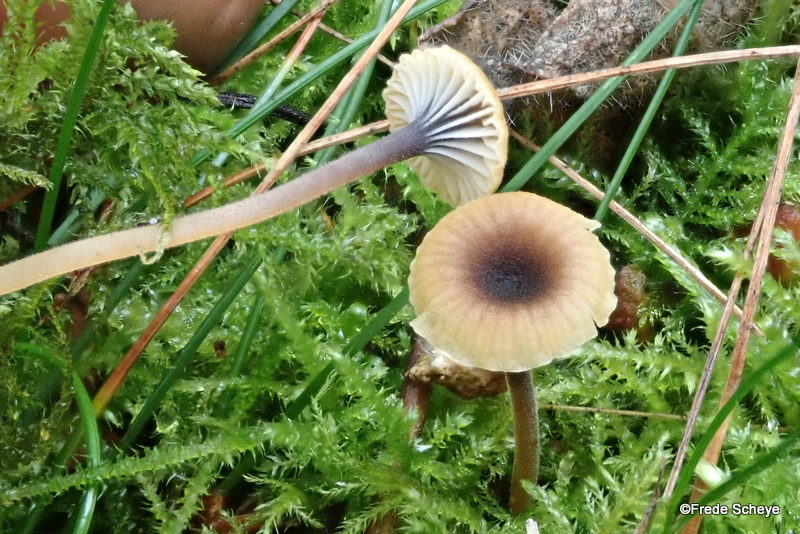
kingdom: Fungi
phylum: Basidiomycota
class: Agaricomycetes
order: Hymenochaetales
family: Rickenellaceae
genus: Rickenella
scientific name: Rickenella swartzii
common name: finstokket mosnavlehat
